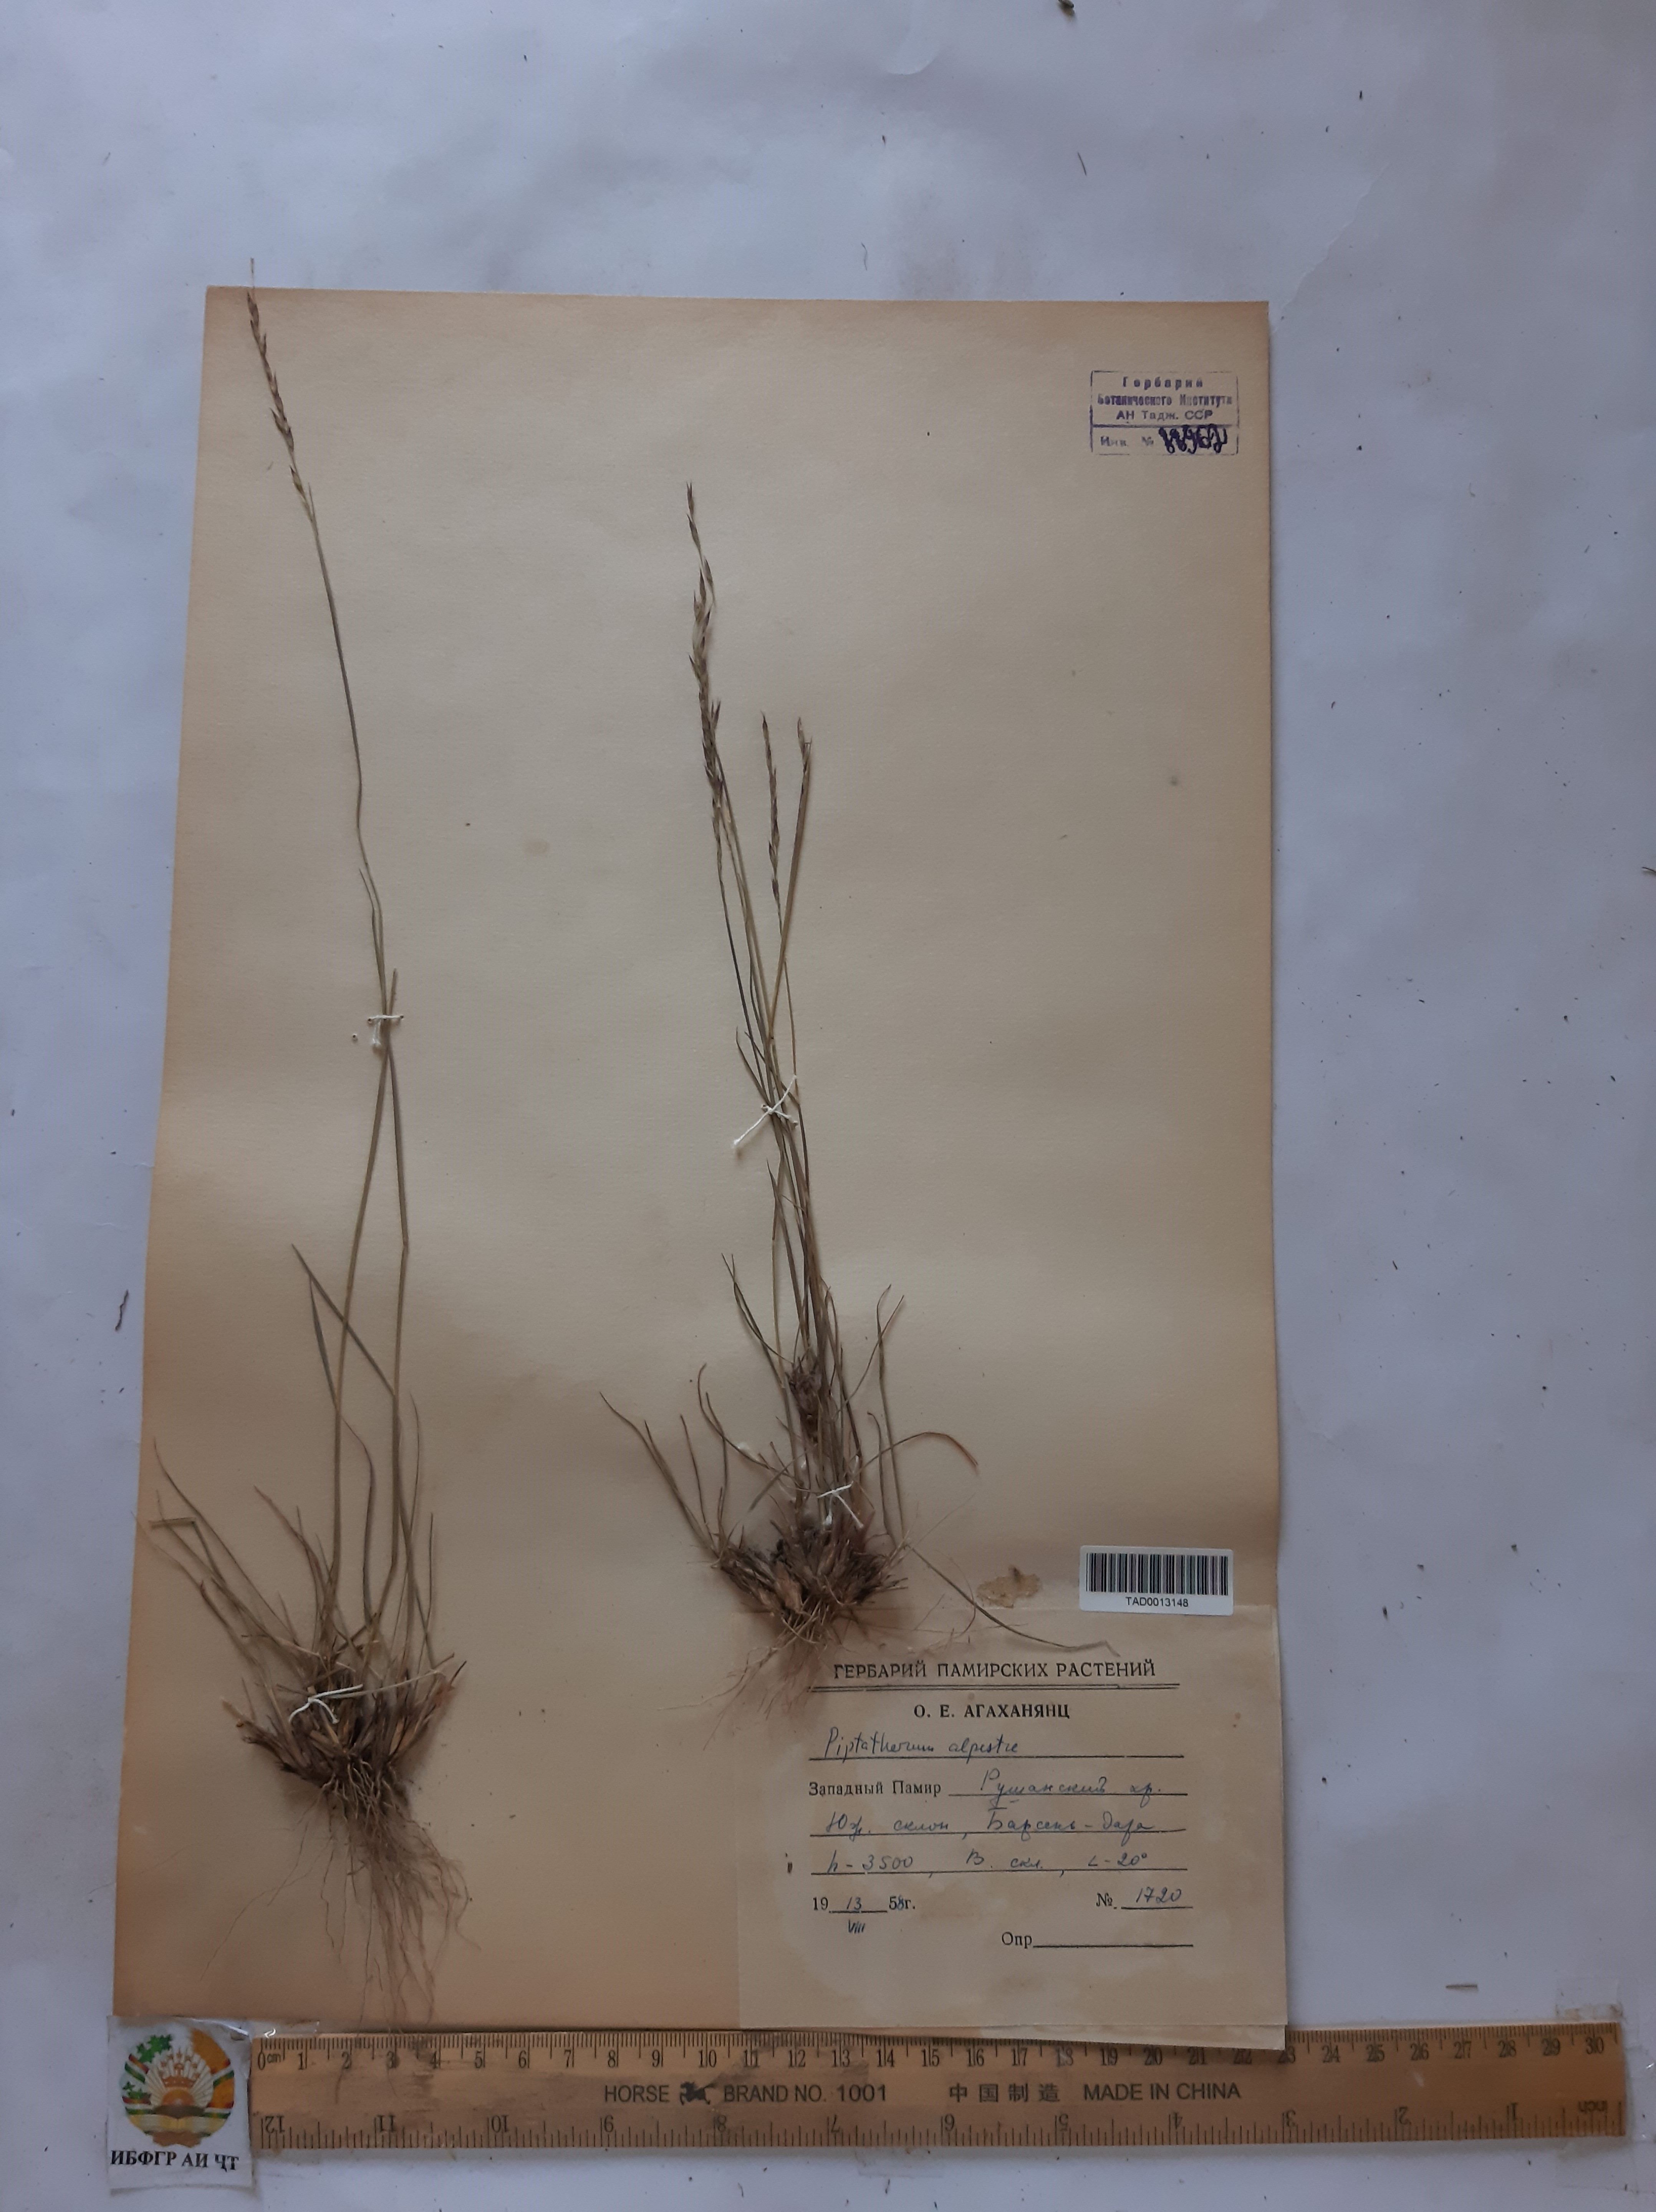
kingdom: Plantae
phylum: Tracheophyta
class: Liliopsida
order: Poales
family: Poaceae
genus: Piptatherum
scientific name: Piptatherum alpestre
